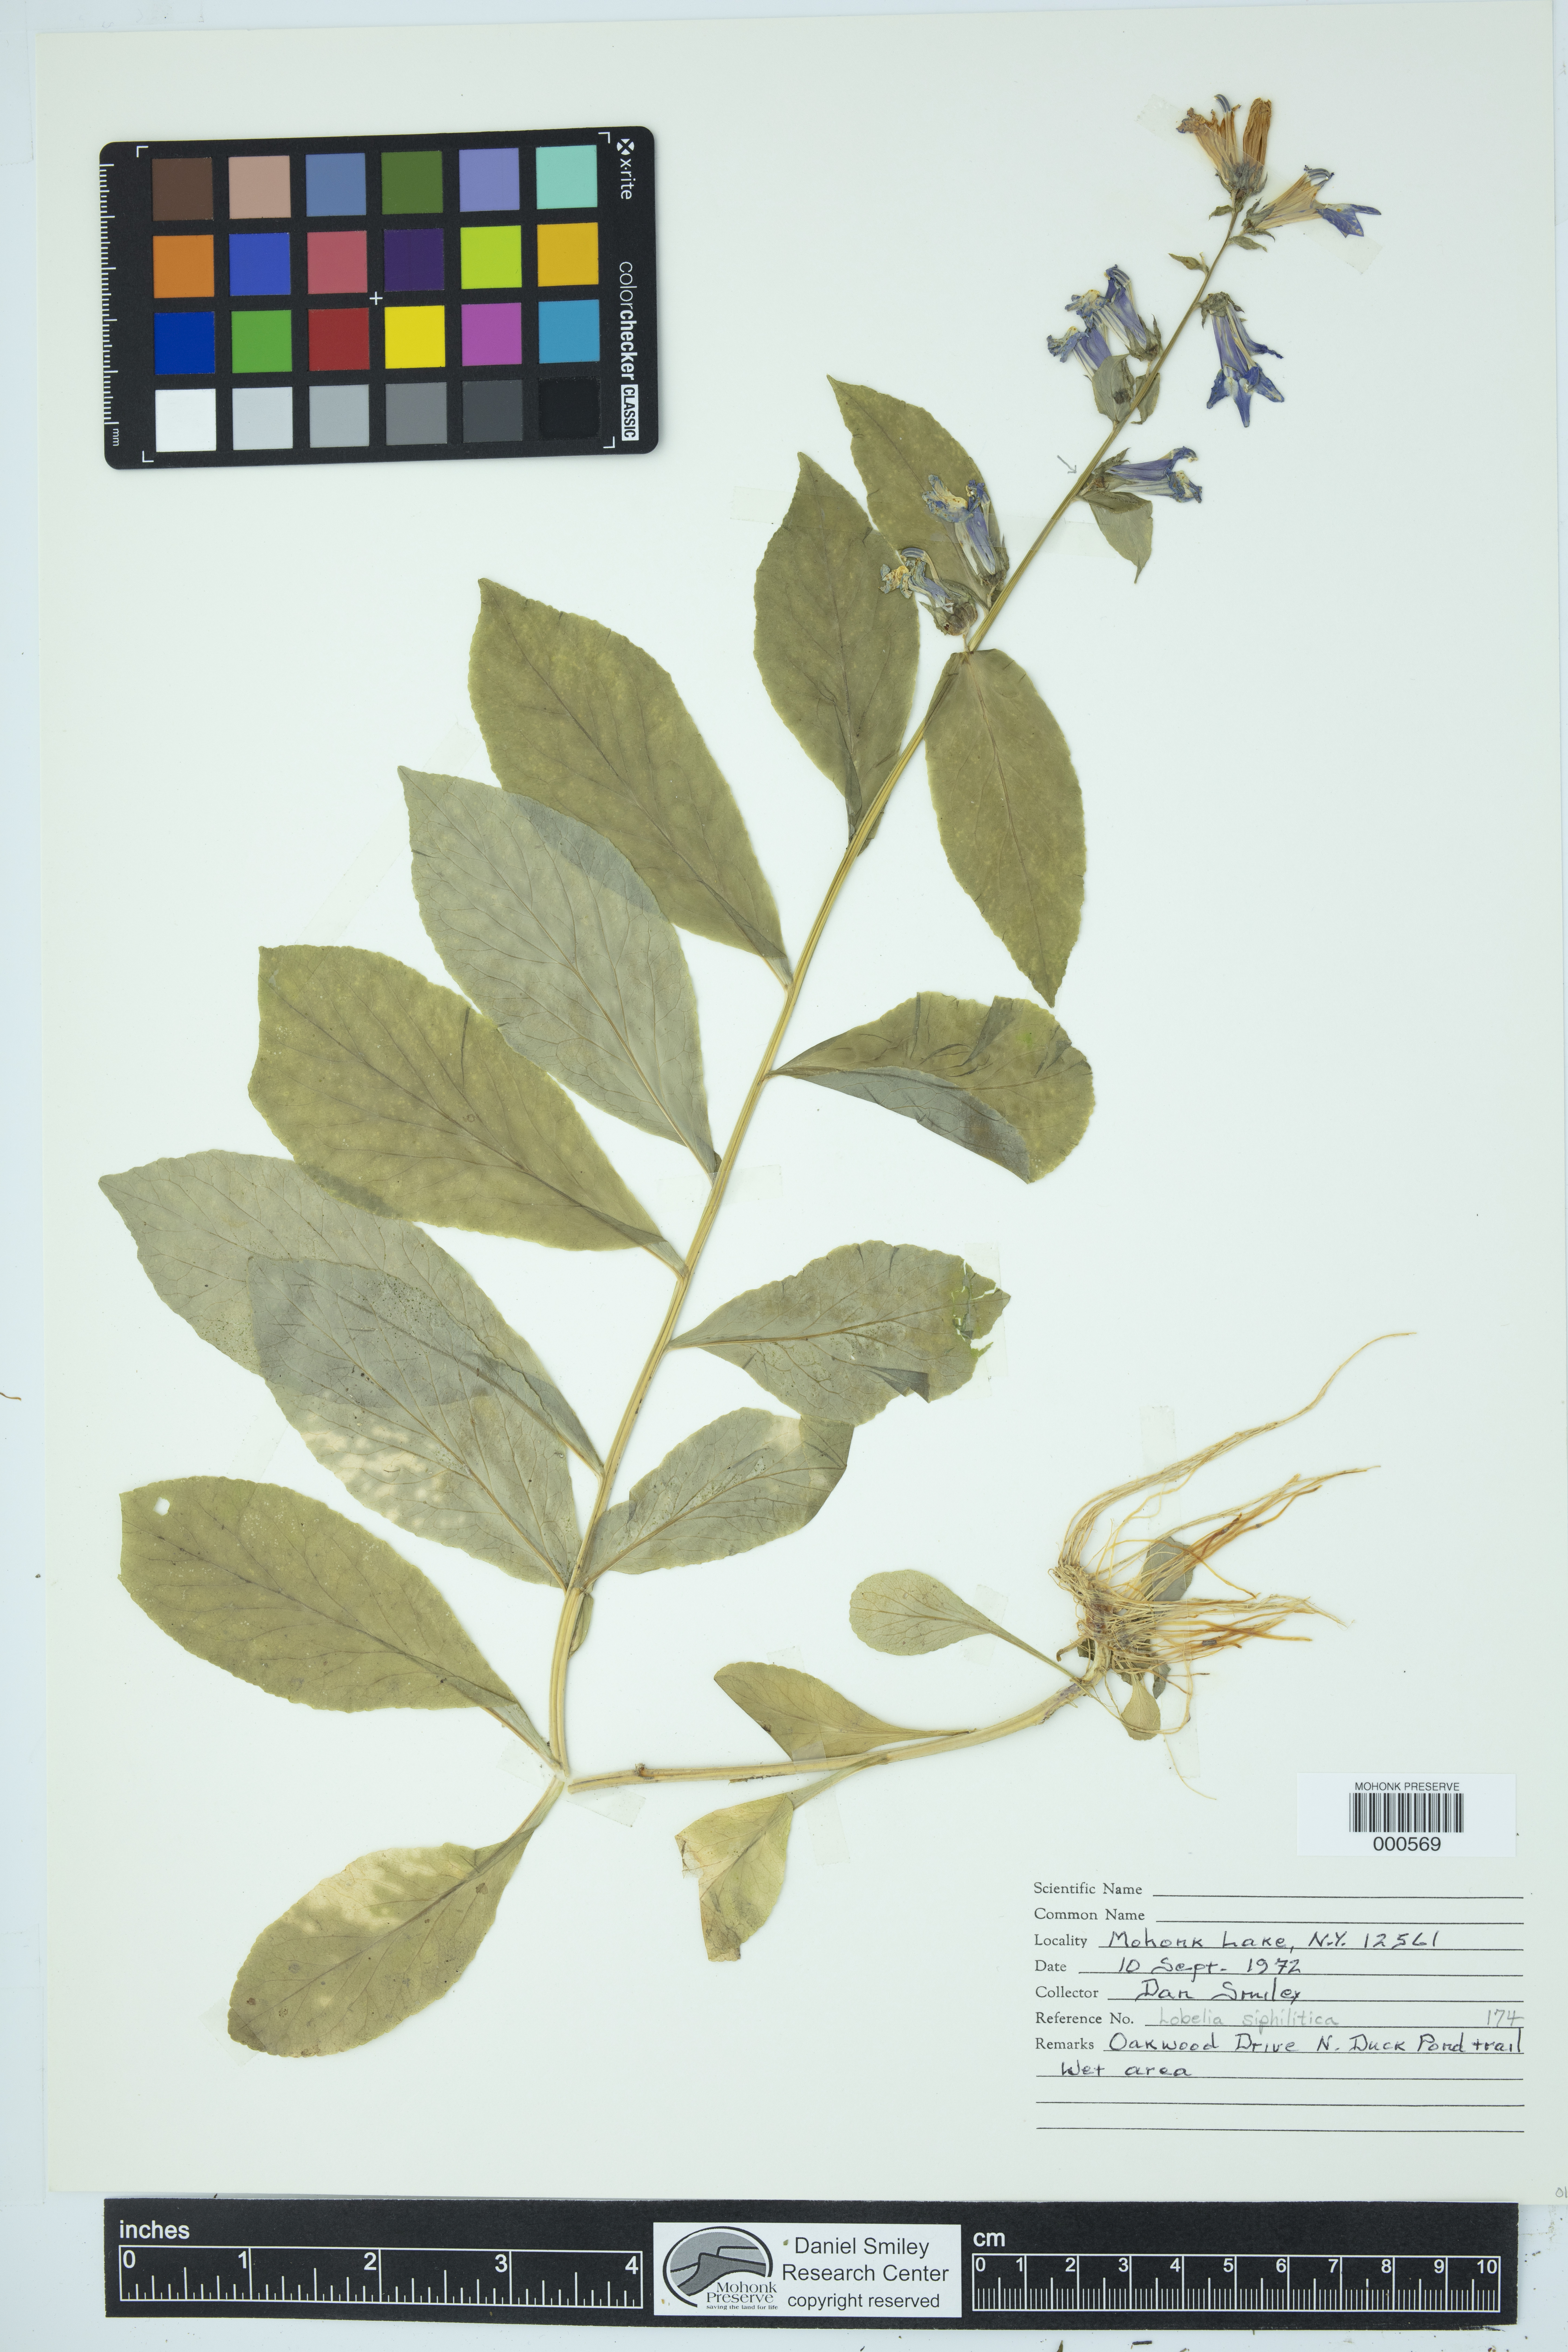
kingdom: Plantae
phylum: Tracheophyta
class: Magnoliopsida
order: Asterales
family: Campanulaceae
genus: Lobelia
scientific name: Lobelia siphilitica
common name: Great lobelia
